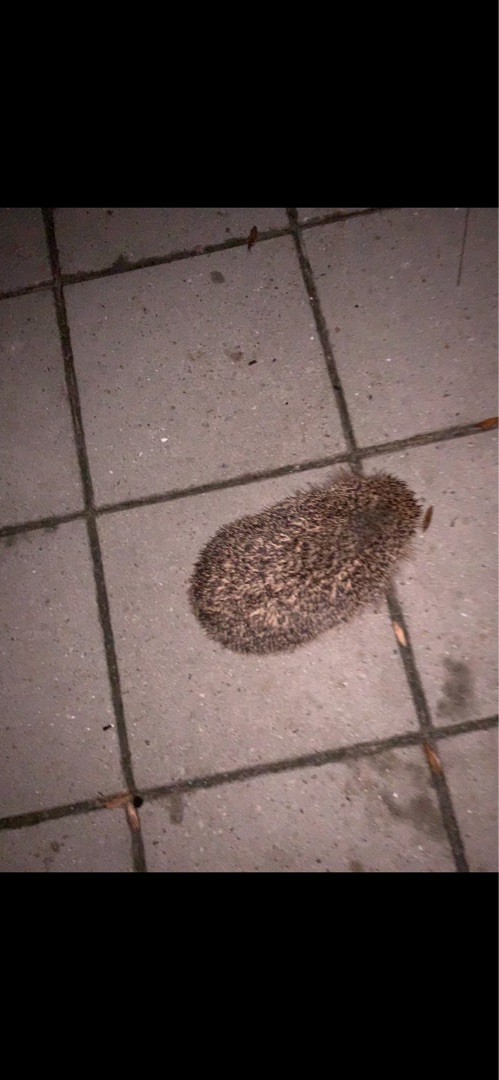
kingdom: Animalia
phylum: Chordata
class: Mammalia
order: Erinaceomorpha
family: Erinaceidae
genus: Erinaceus
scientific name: Erinaceus europaeus
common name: Pindsvin
